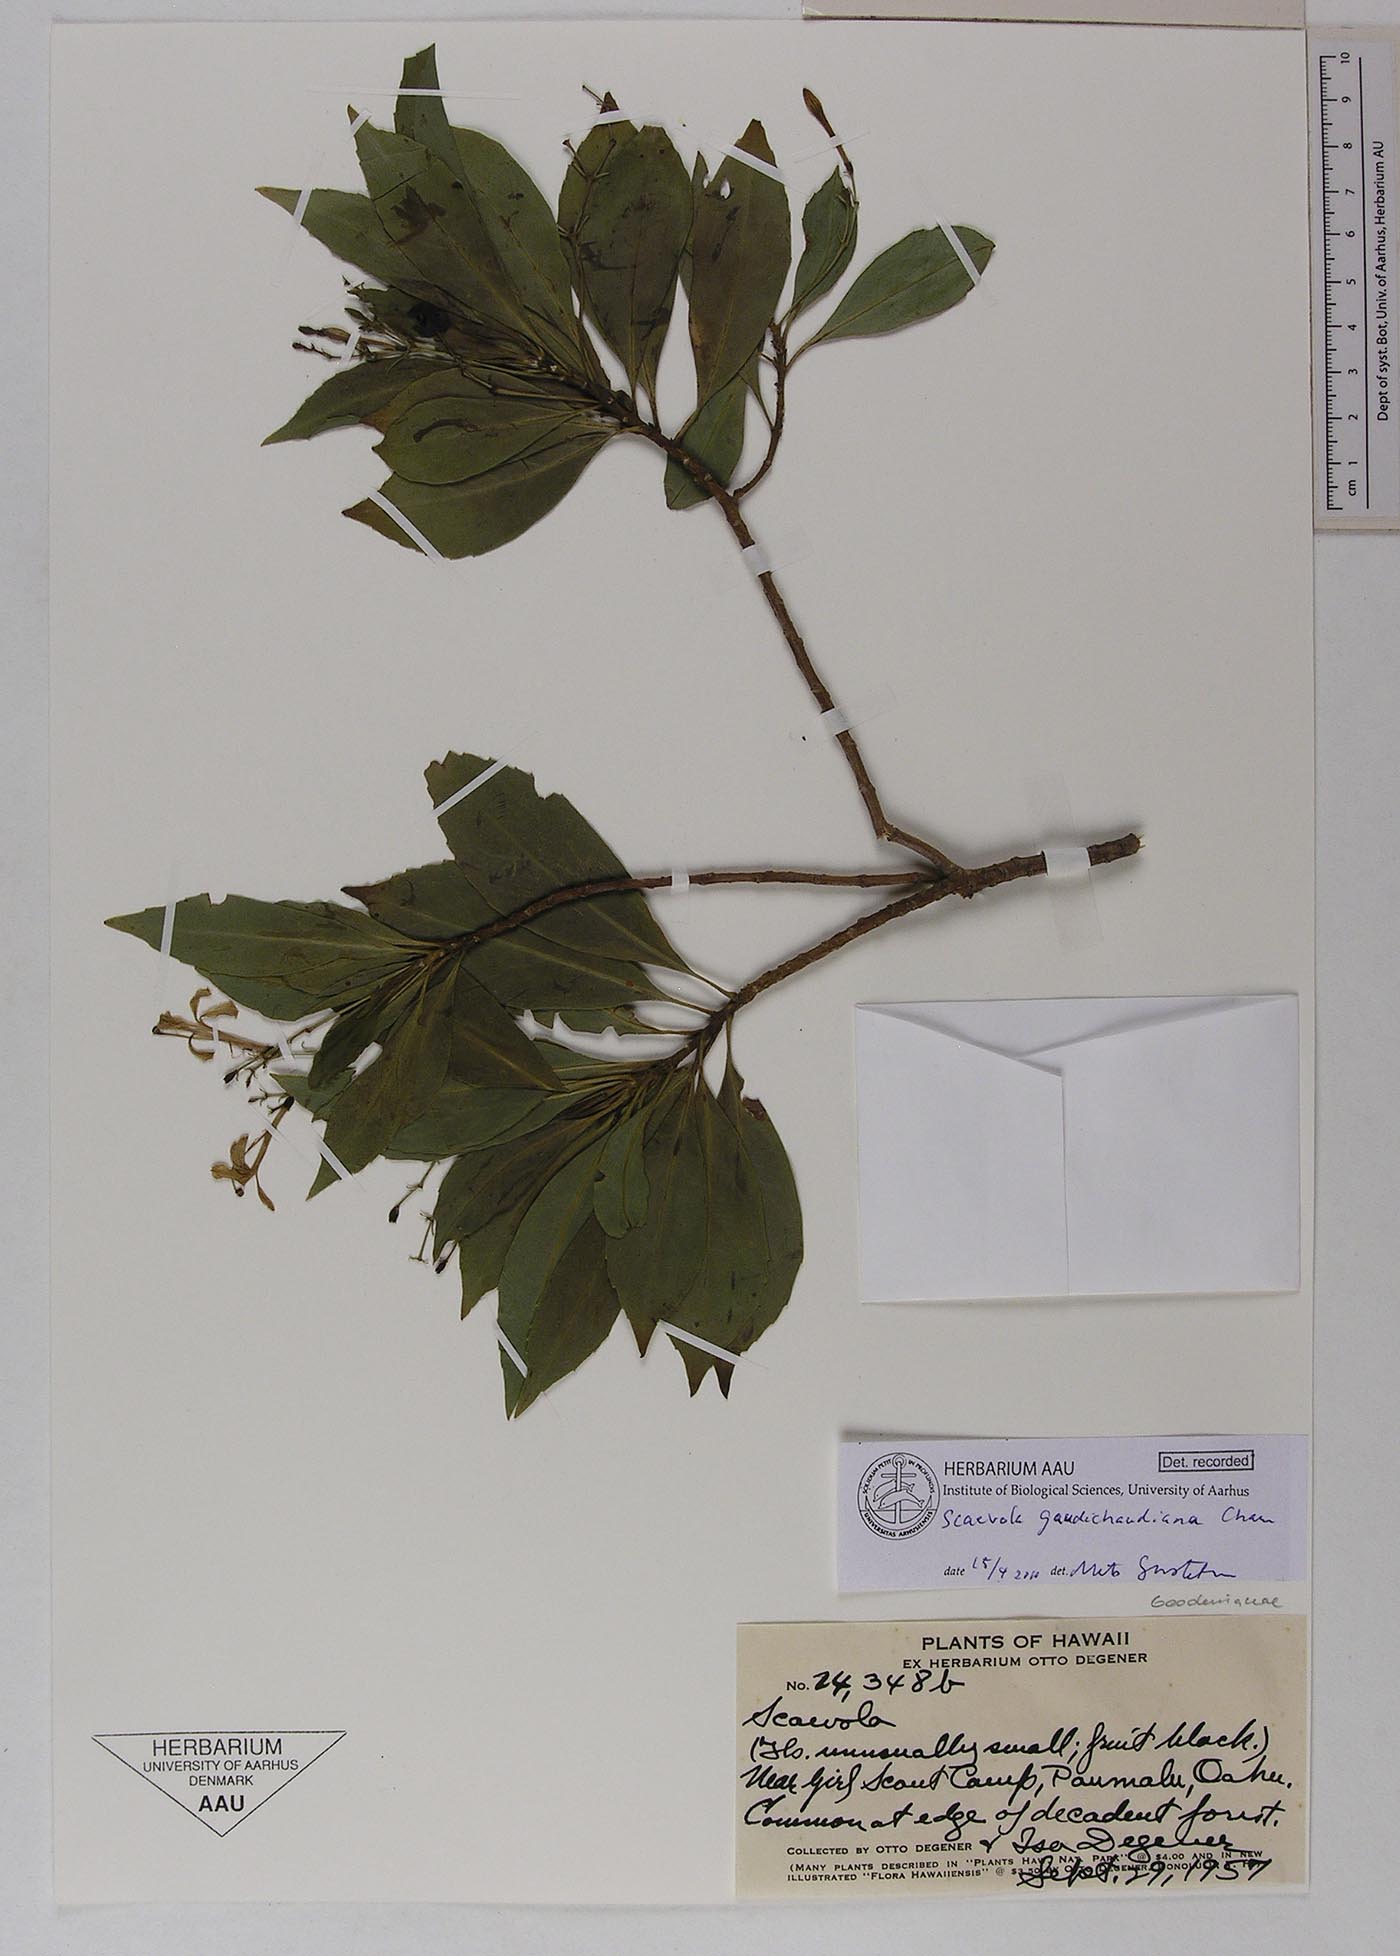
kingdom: Plantae
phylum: Tracheophyta
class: Magnoliopsida
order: Asterales
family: Goodeniaceae
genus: Scaevola
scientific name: Scaevola gaudichaudii
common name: Mountain naupaka
